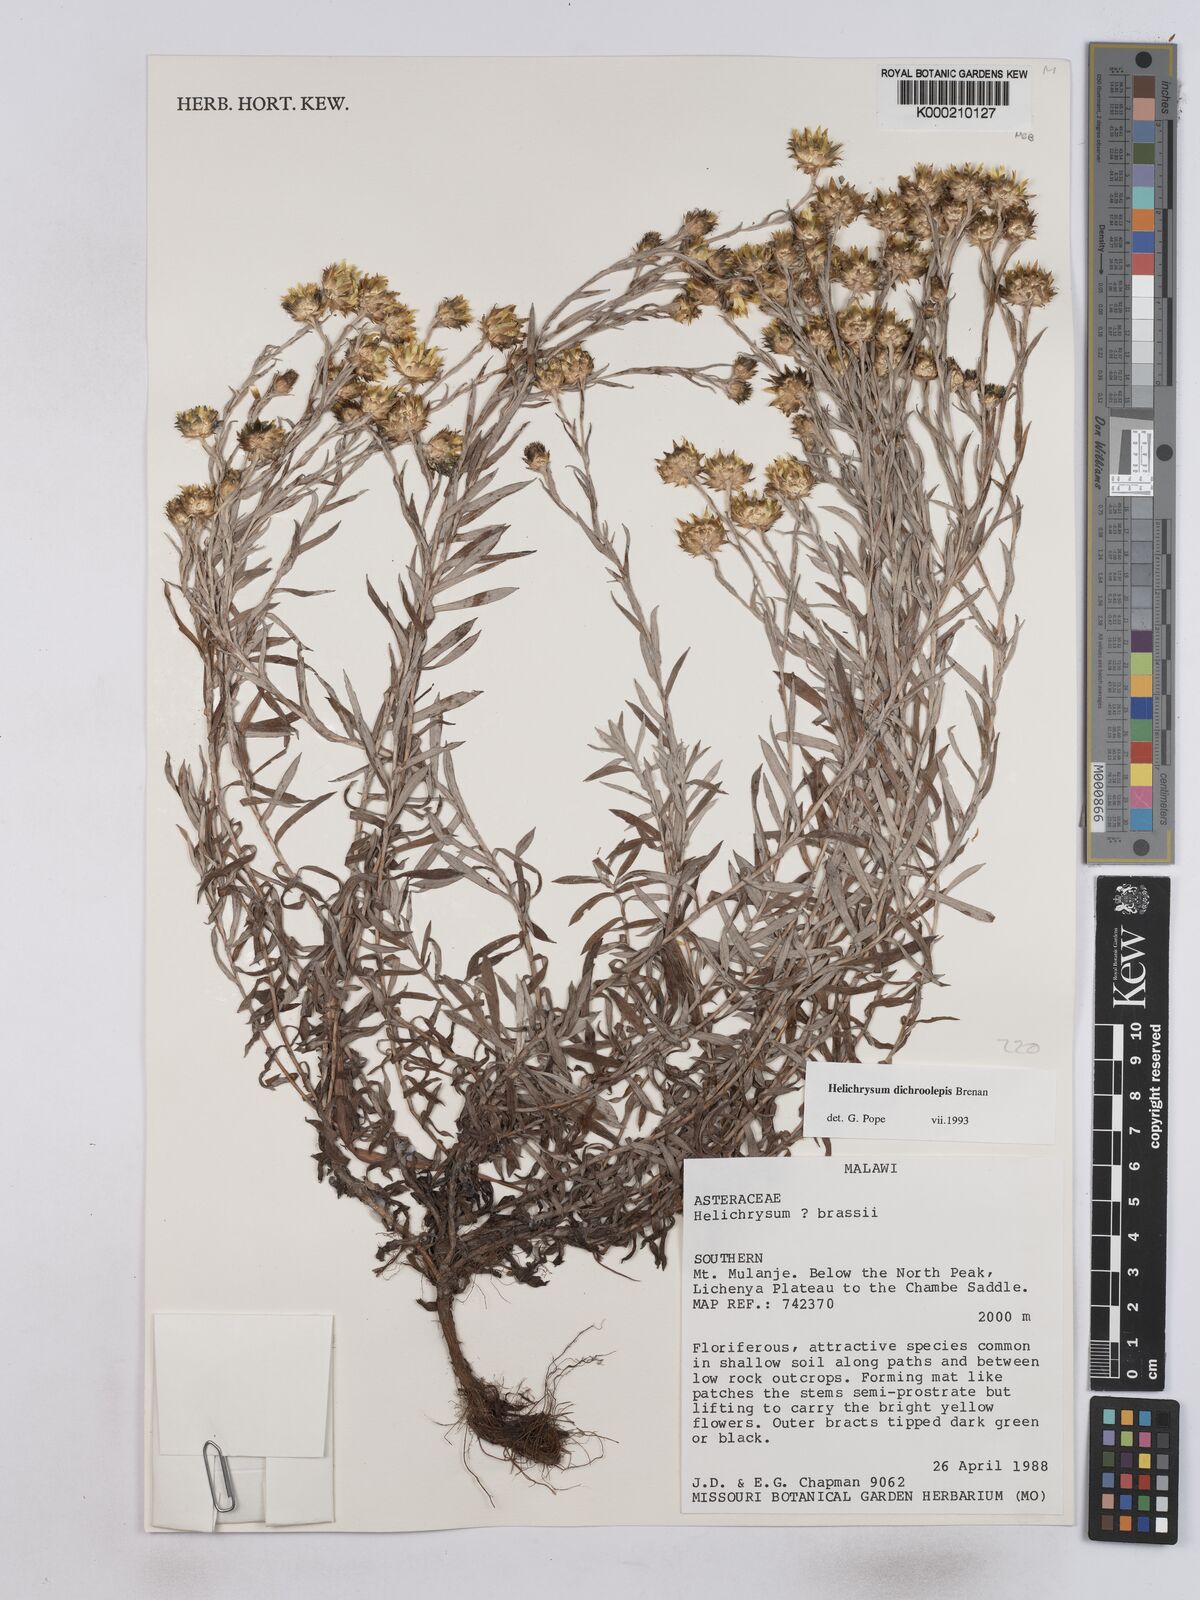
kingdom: Plantae
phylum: Tracheophyta
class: Magnoliopsida
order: Asterales
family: Asteraceae
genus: Helichrysum
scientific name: Helichrysum
